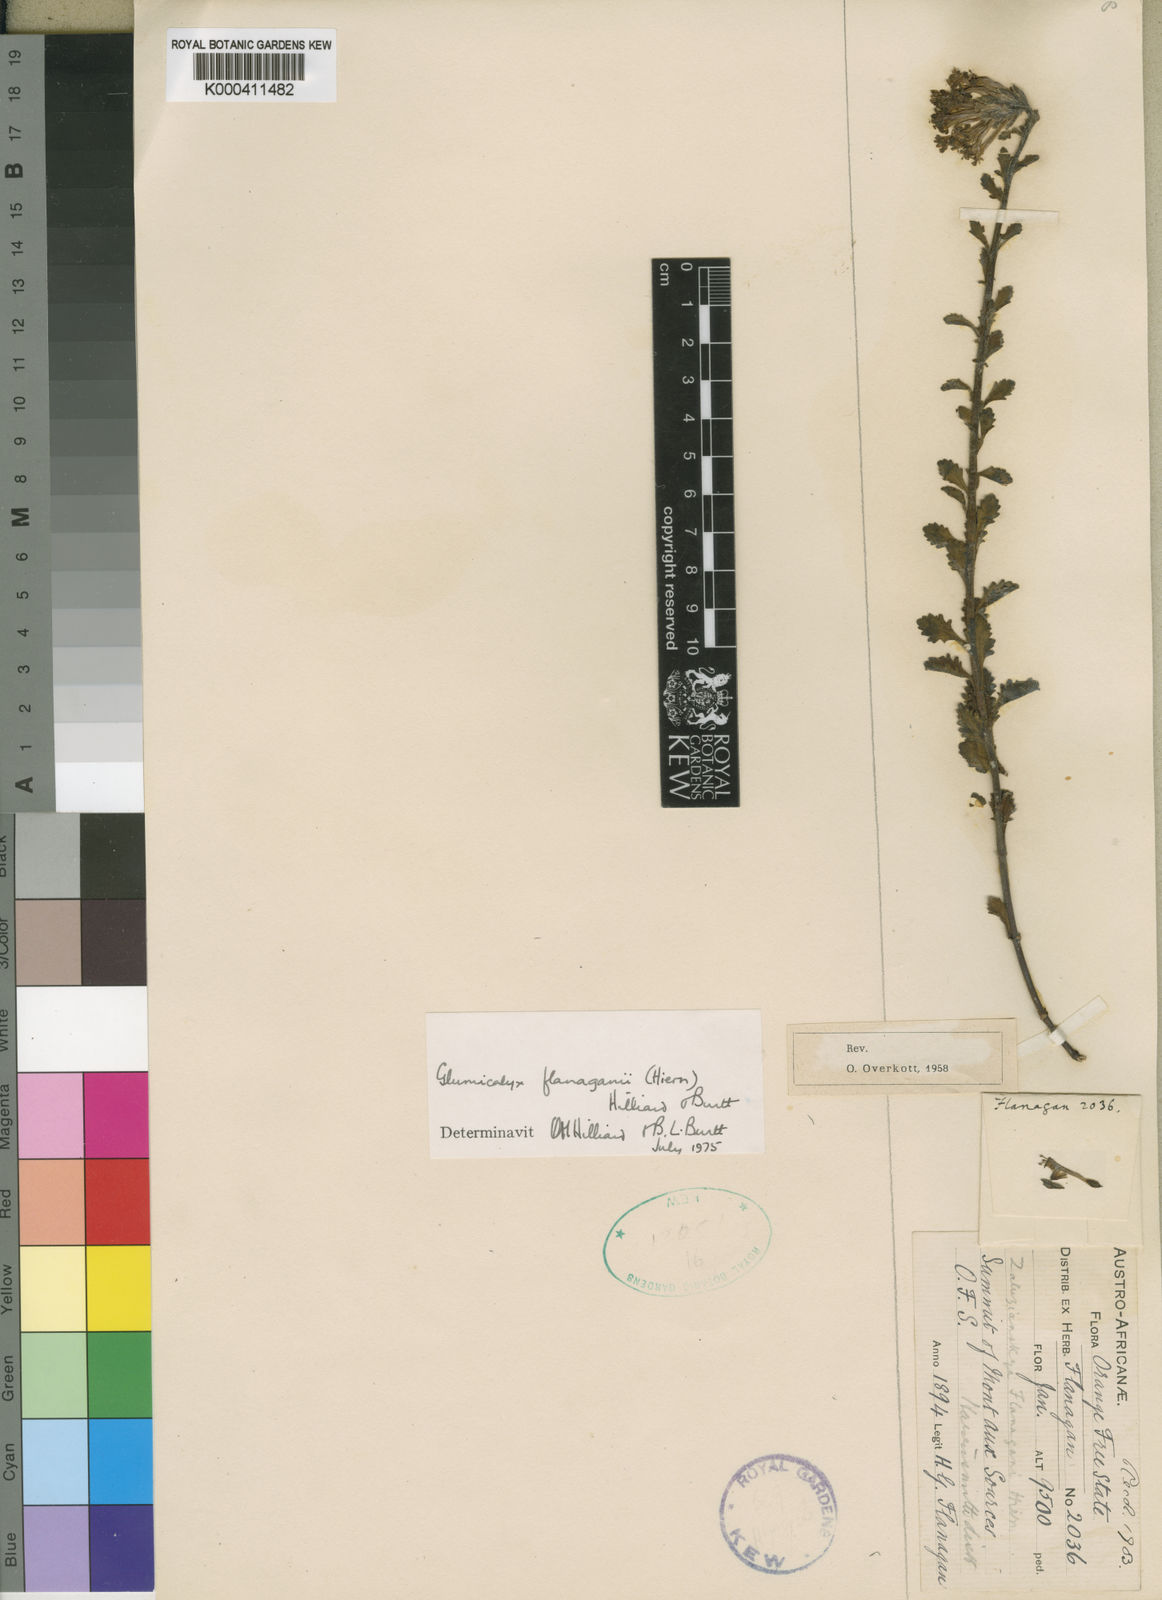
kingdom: Plantae
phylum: Tracheophyta
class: Magnoliopsida
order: Lamiales
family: Scrophulariaceae
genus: Glumicalyx
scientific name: Glumicalyx flanaganii
